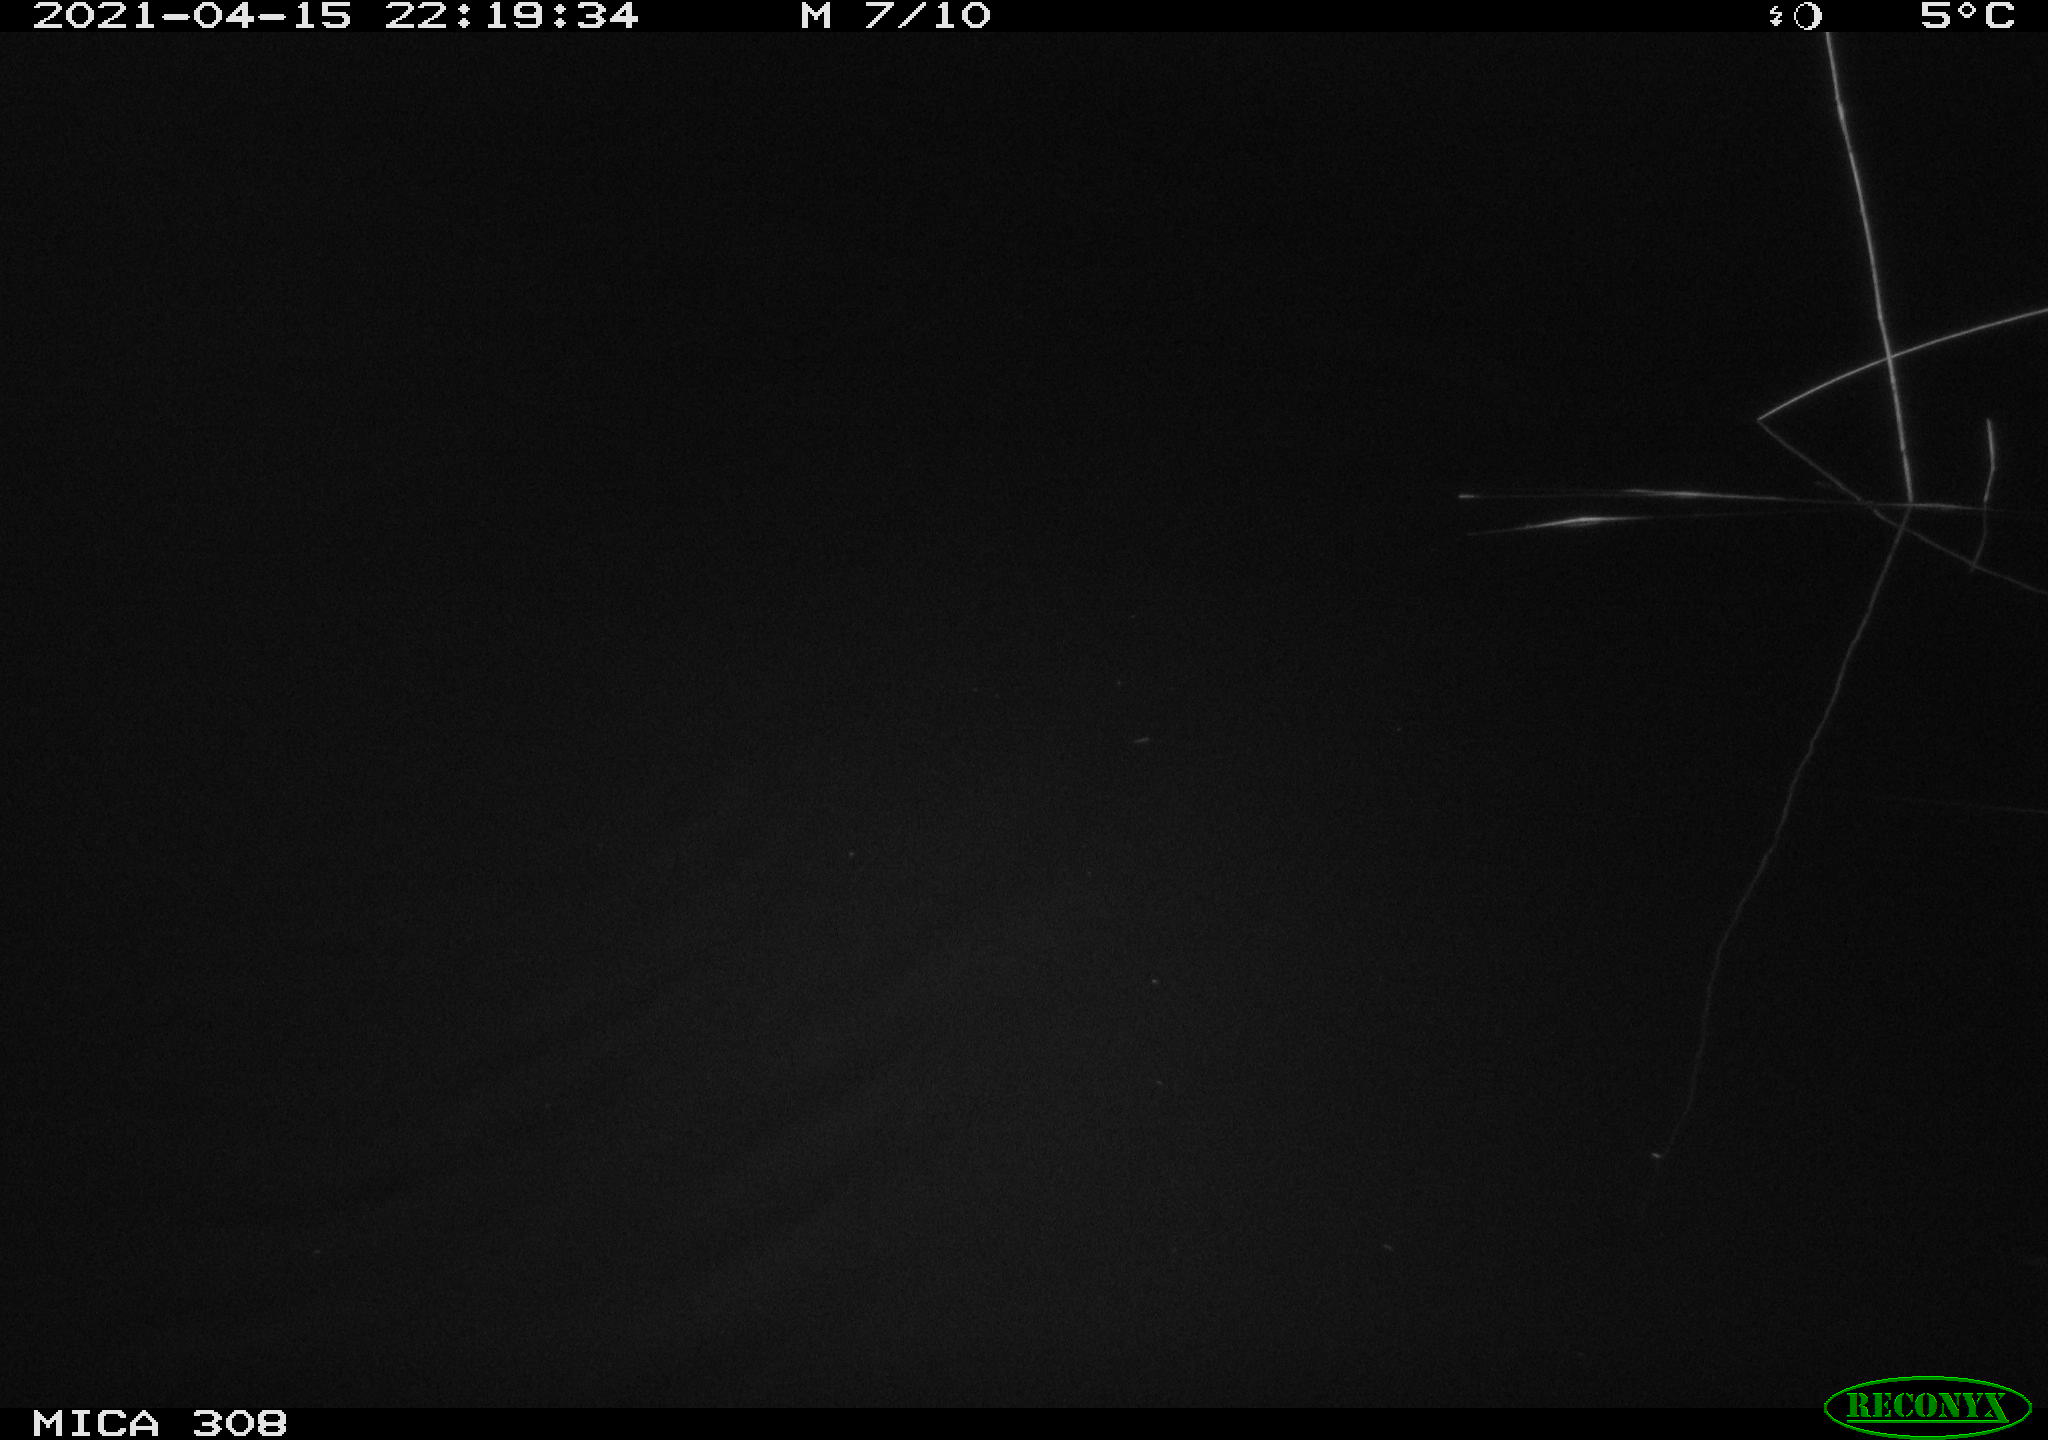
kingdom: Animalia
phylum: Chordata
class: Aves
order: Anseriformes
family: Anatidae
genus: Anas
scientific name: Anas platyrhynchos
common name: Mallard
